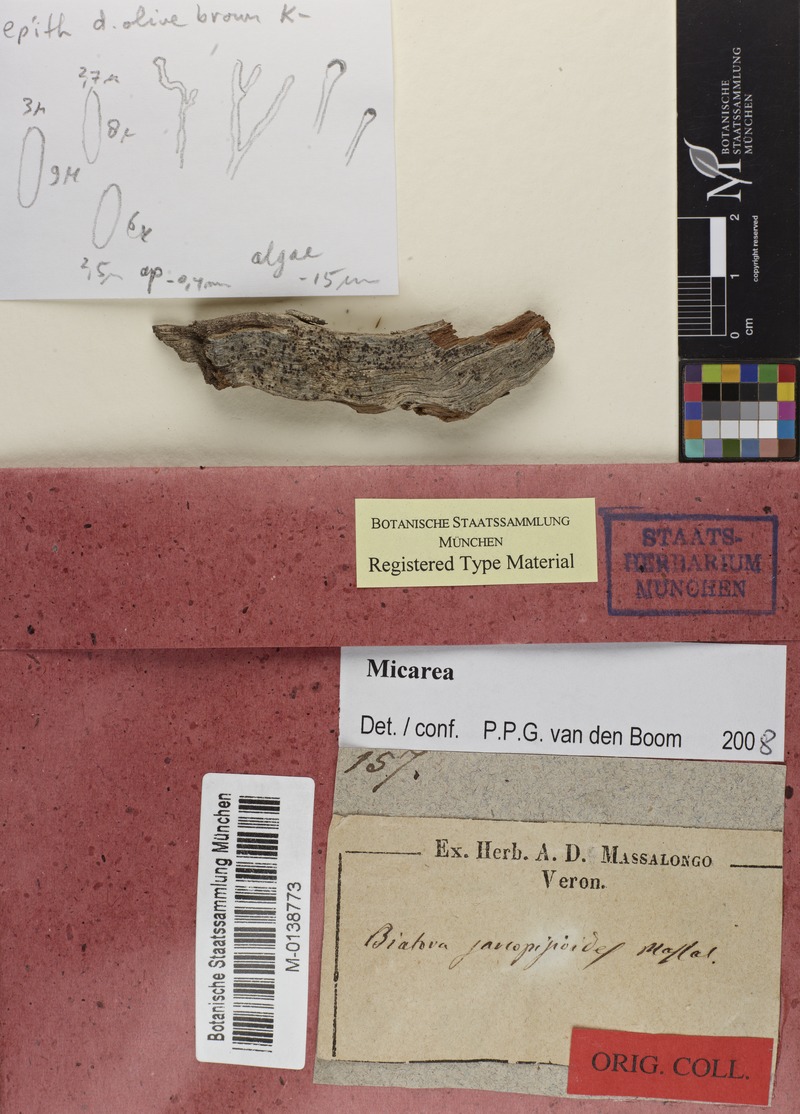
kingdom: Fungi
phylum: Ascomycota
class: Lecanoromycetes
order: Lecanorales
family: Lecanoraceae
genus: Lecanora
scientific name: Lecanora sarcopidoides
